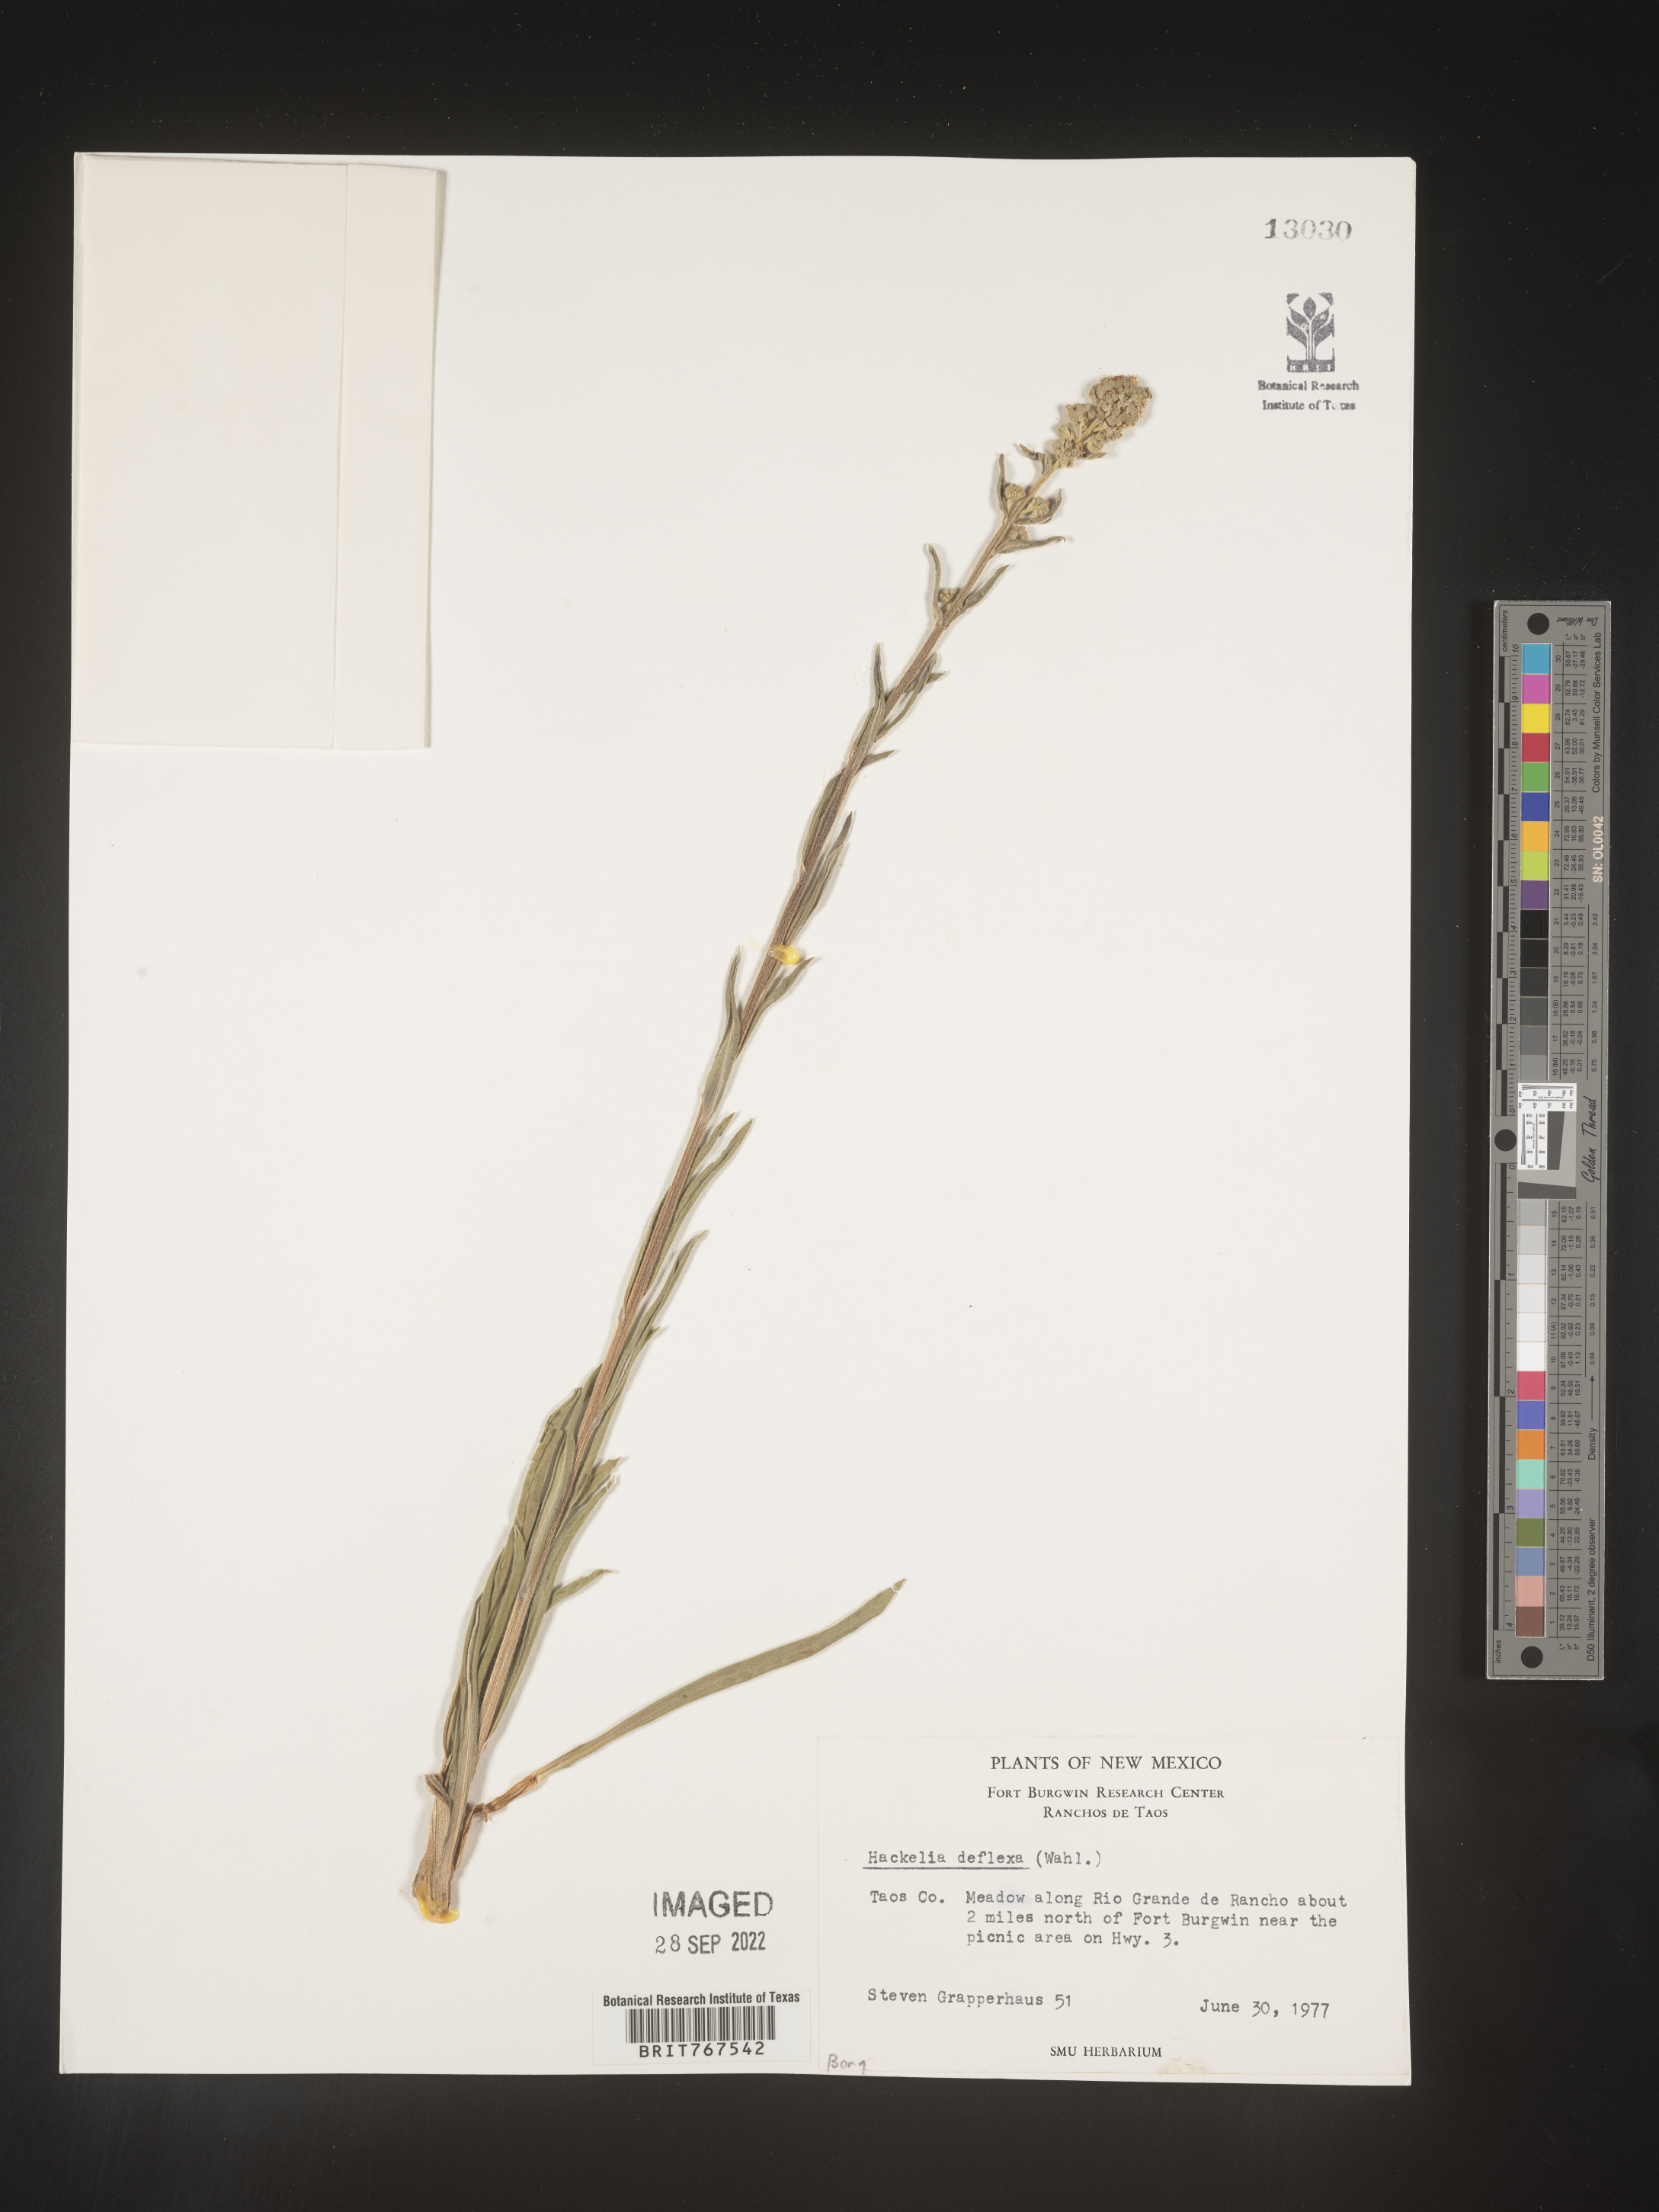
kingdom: Plantae
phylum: Tracheophyta
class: Magnoliopsida
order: Boraginales
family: Boraginaceae
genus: Hackelia
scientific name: Hackelia
